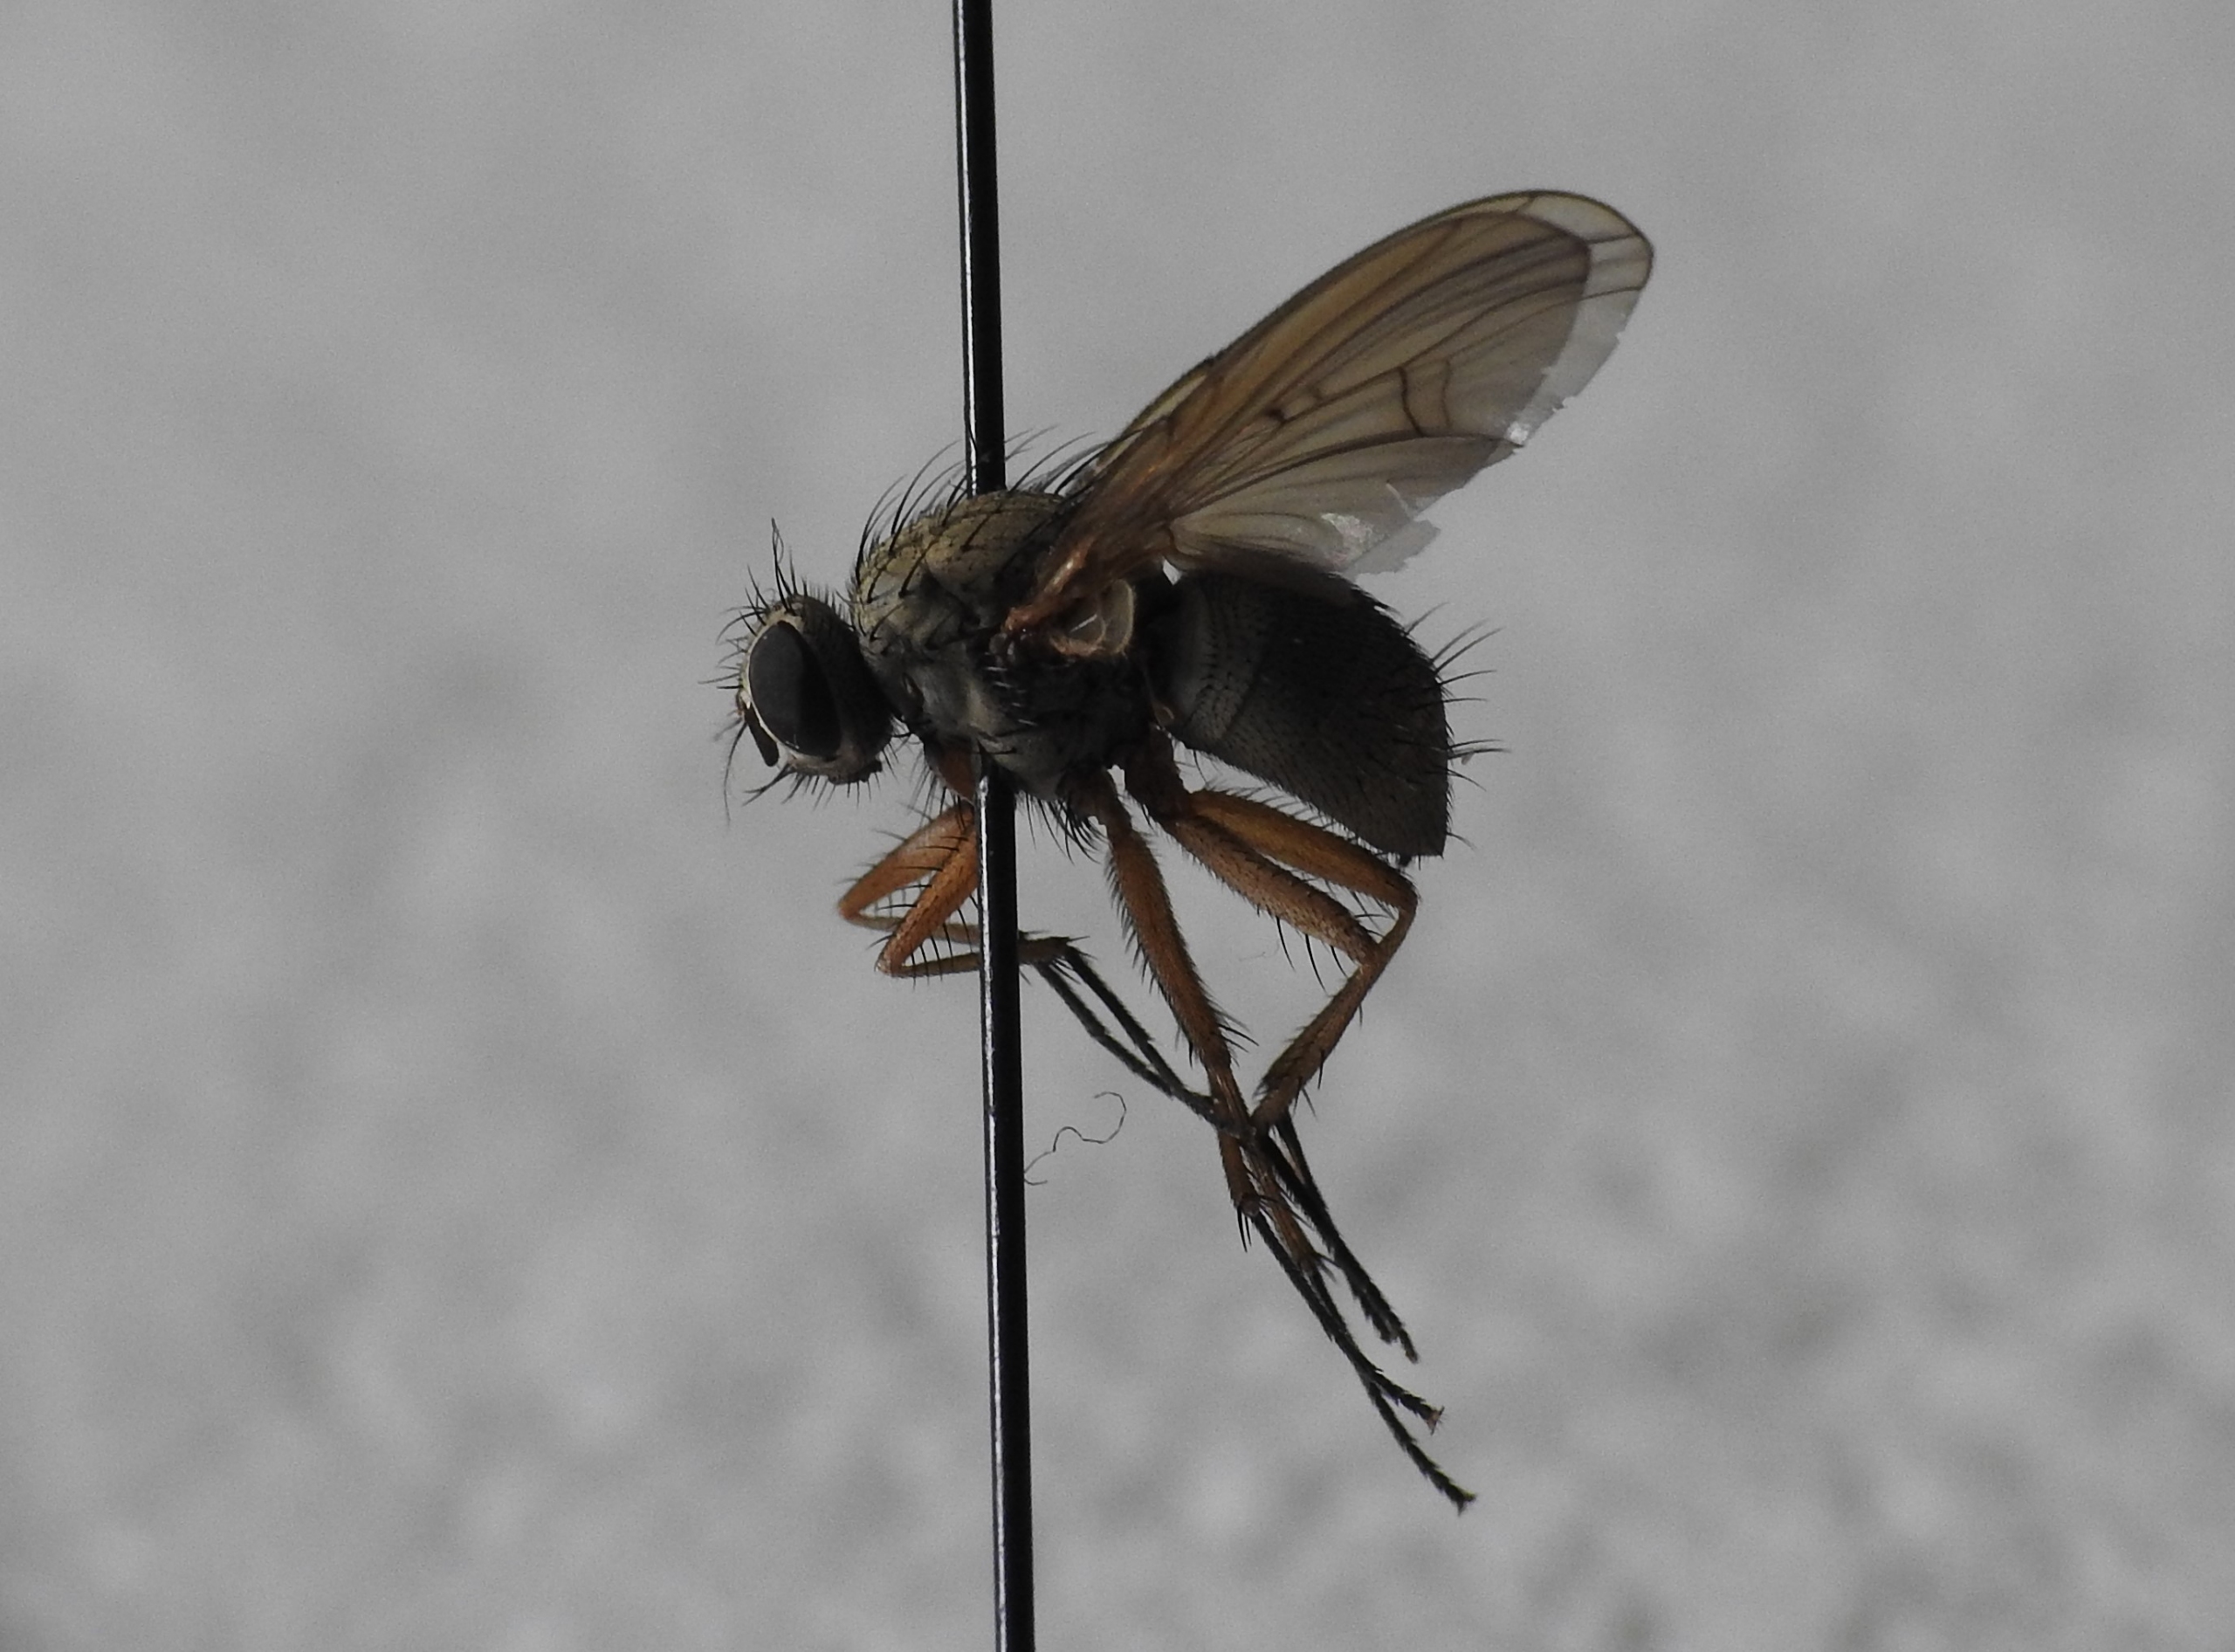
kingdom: Animalia
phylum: Arthropoda
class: Insecta
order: Diptera
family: Muscidae
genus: Helina
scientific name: Helina depuncta
